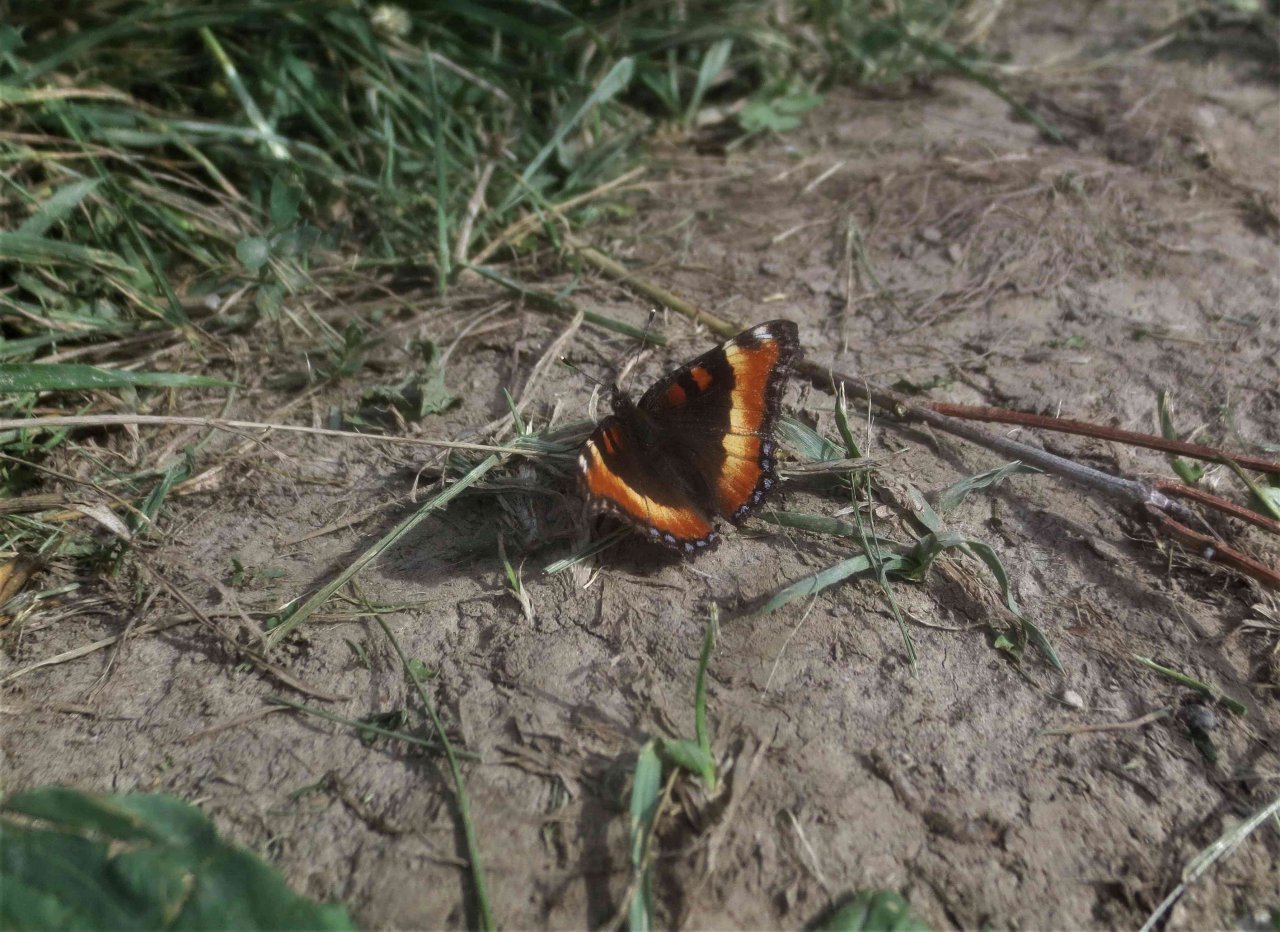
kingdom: Animalia
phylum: Arthropoda
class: Insecta
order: Lepidoptera
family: Nymphalidae
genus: Aglais
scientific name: Aglais milberti
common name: Milbert's Tortoiseshell
